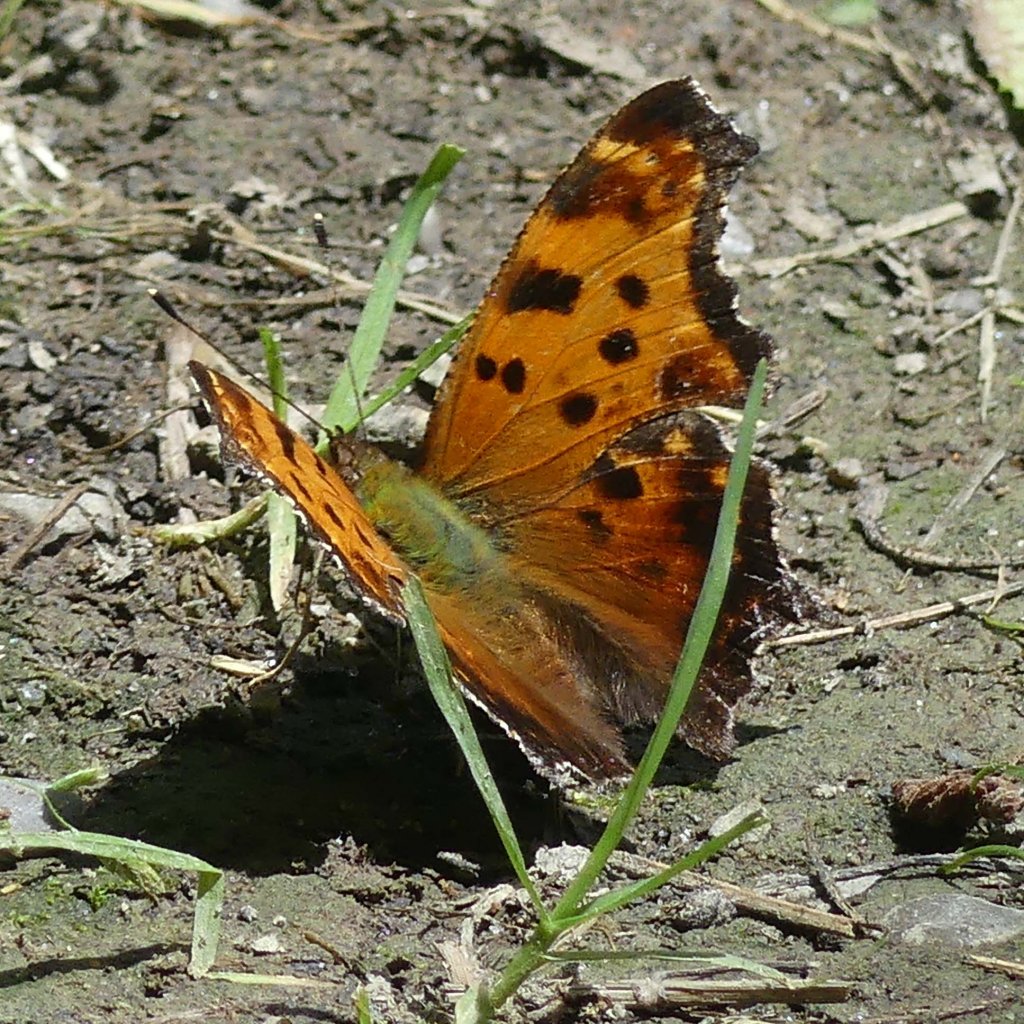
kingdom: Animalia
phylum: Arthropoda
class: Insecta
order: Lepidoptera
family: Nymphalidae
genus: Polygonia
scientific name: Polygonia comma
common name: Eastern Comma
